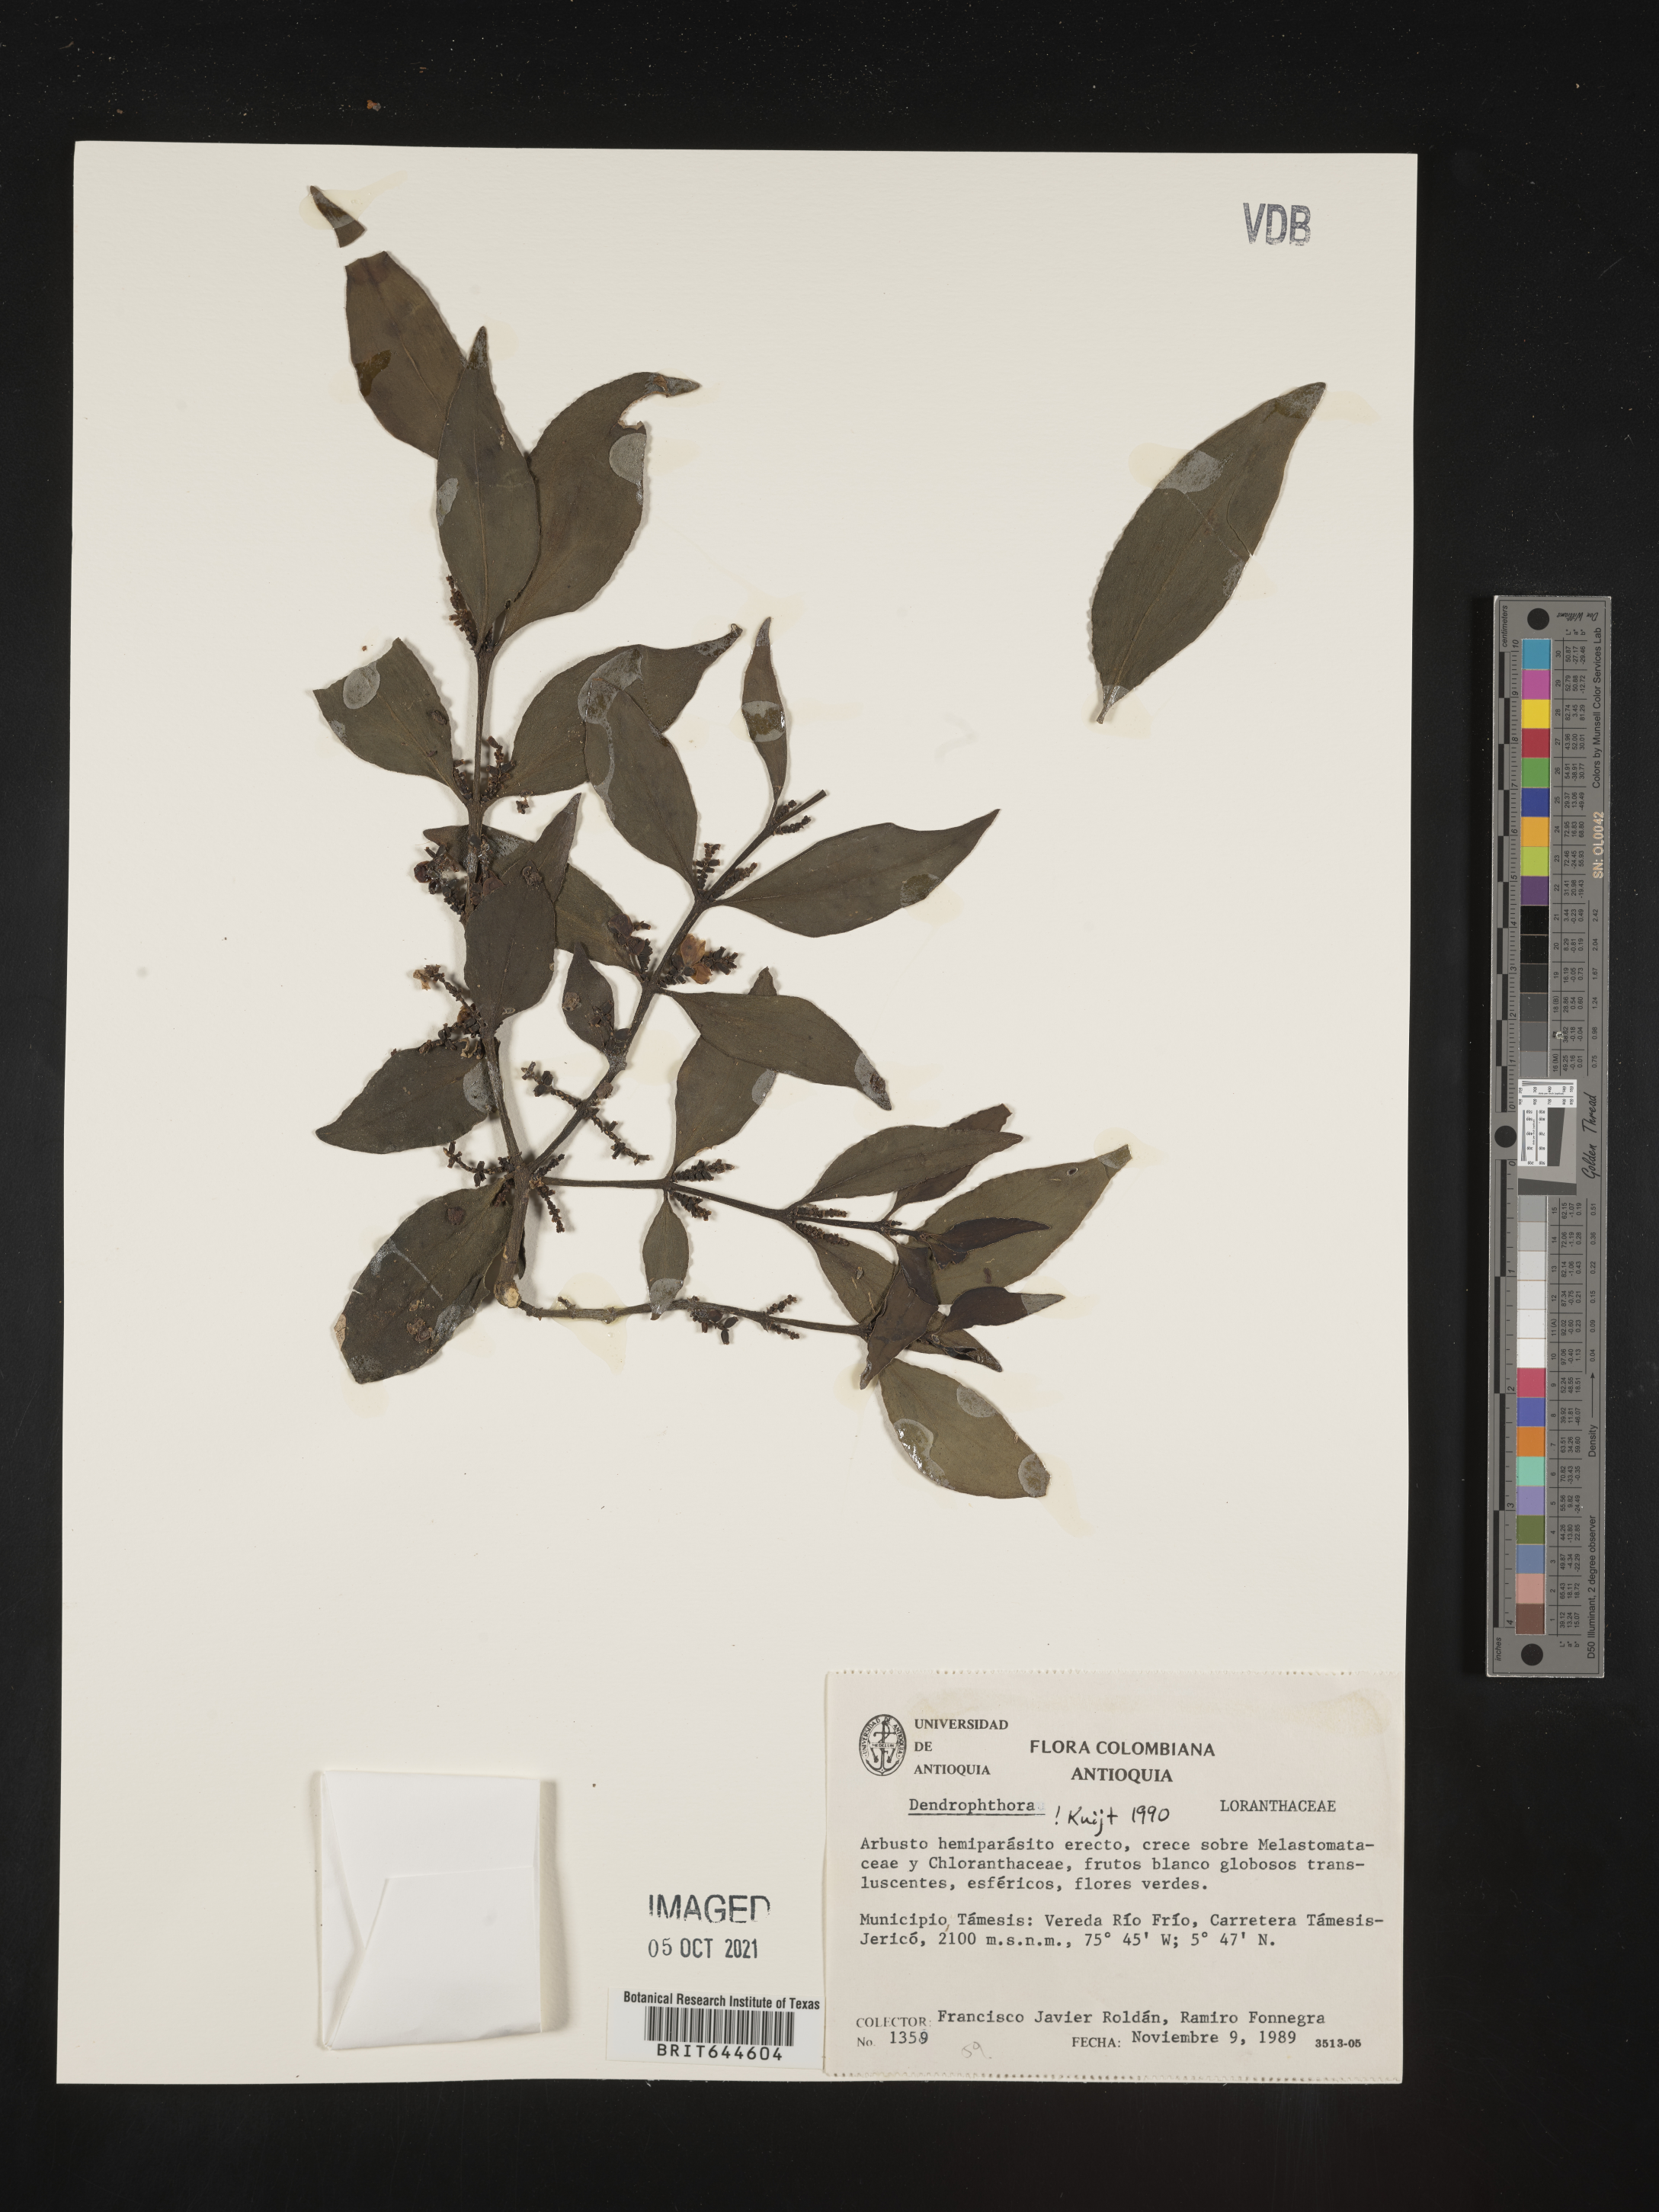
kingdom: Plantae
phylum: Tracheophyta
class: Magnoliopsida
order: Santalales
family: Viscaceae
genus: Dendrophthora
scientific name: Dendrophthora
